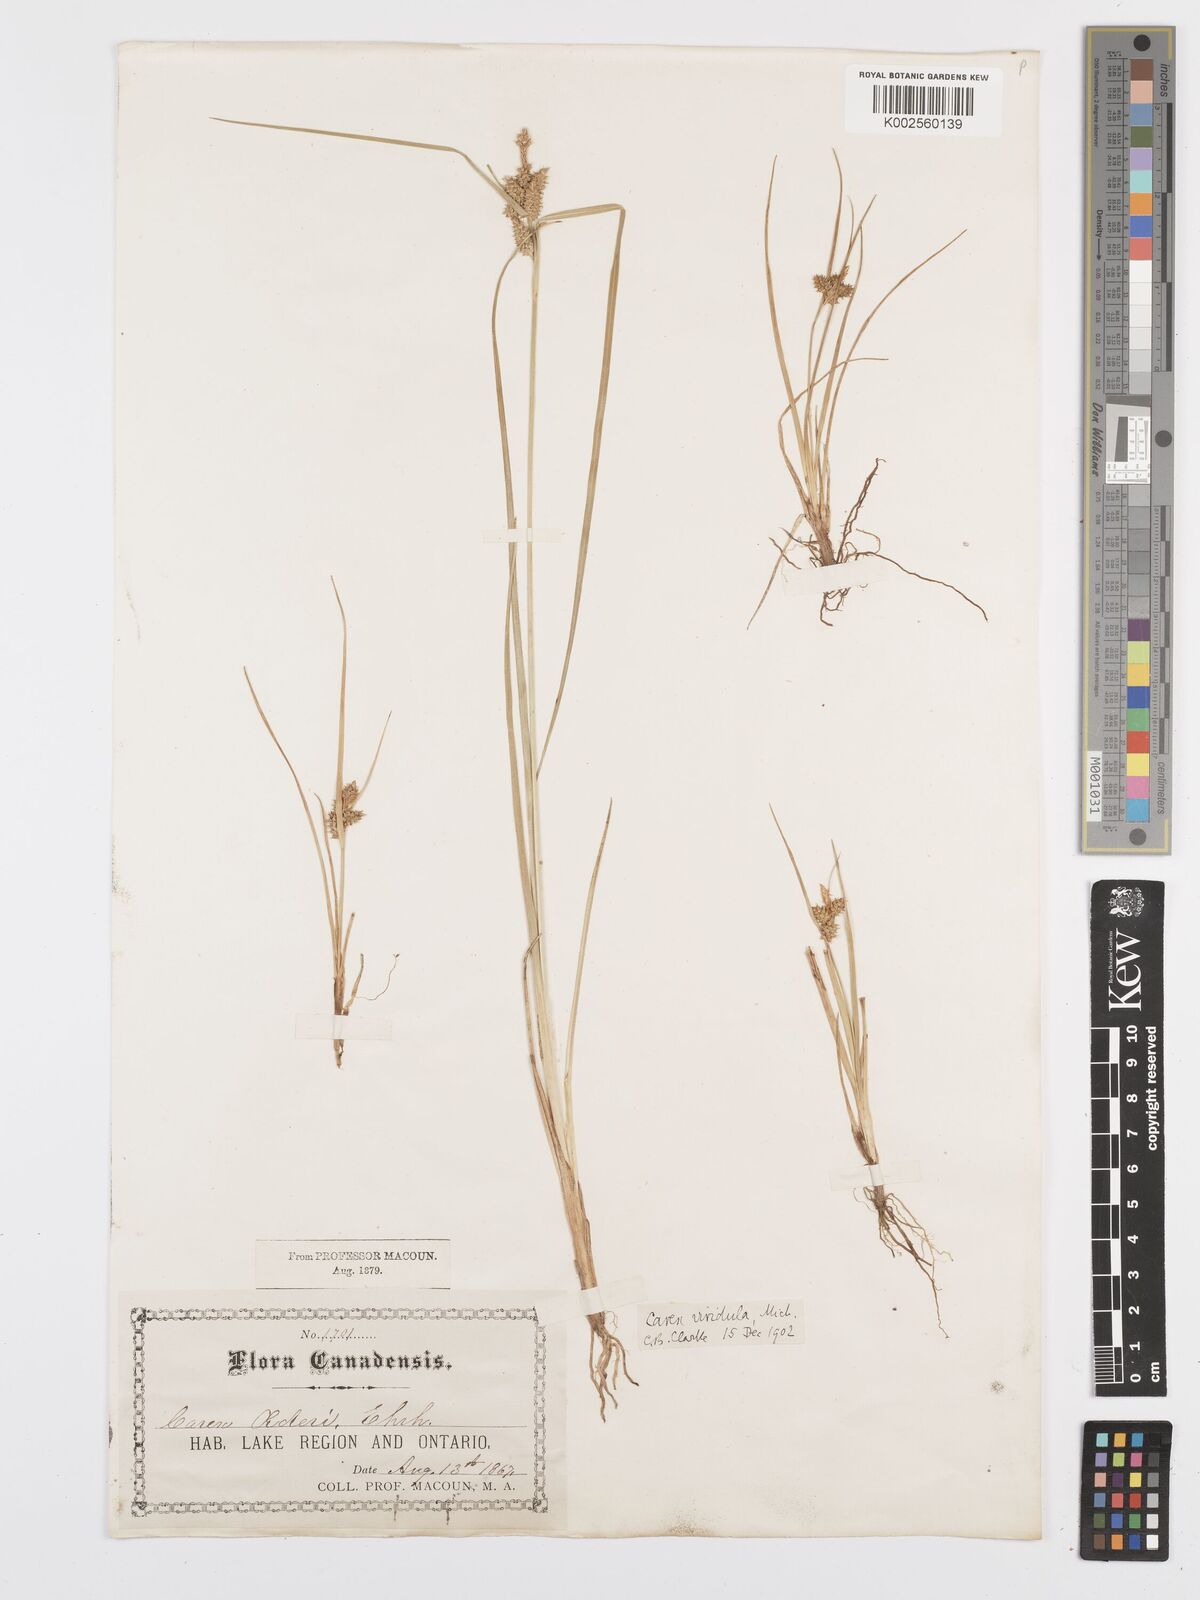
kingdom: Plantae
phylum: Tracheophyta
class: Liliopsida
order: Poales
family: Cyperaceae
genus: Carex
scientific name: Carex oederi
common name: Common & small-fruited yellow-sedge
